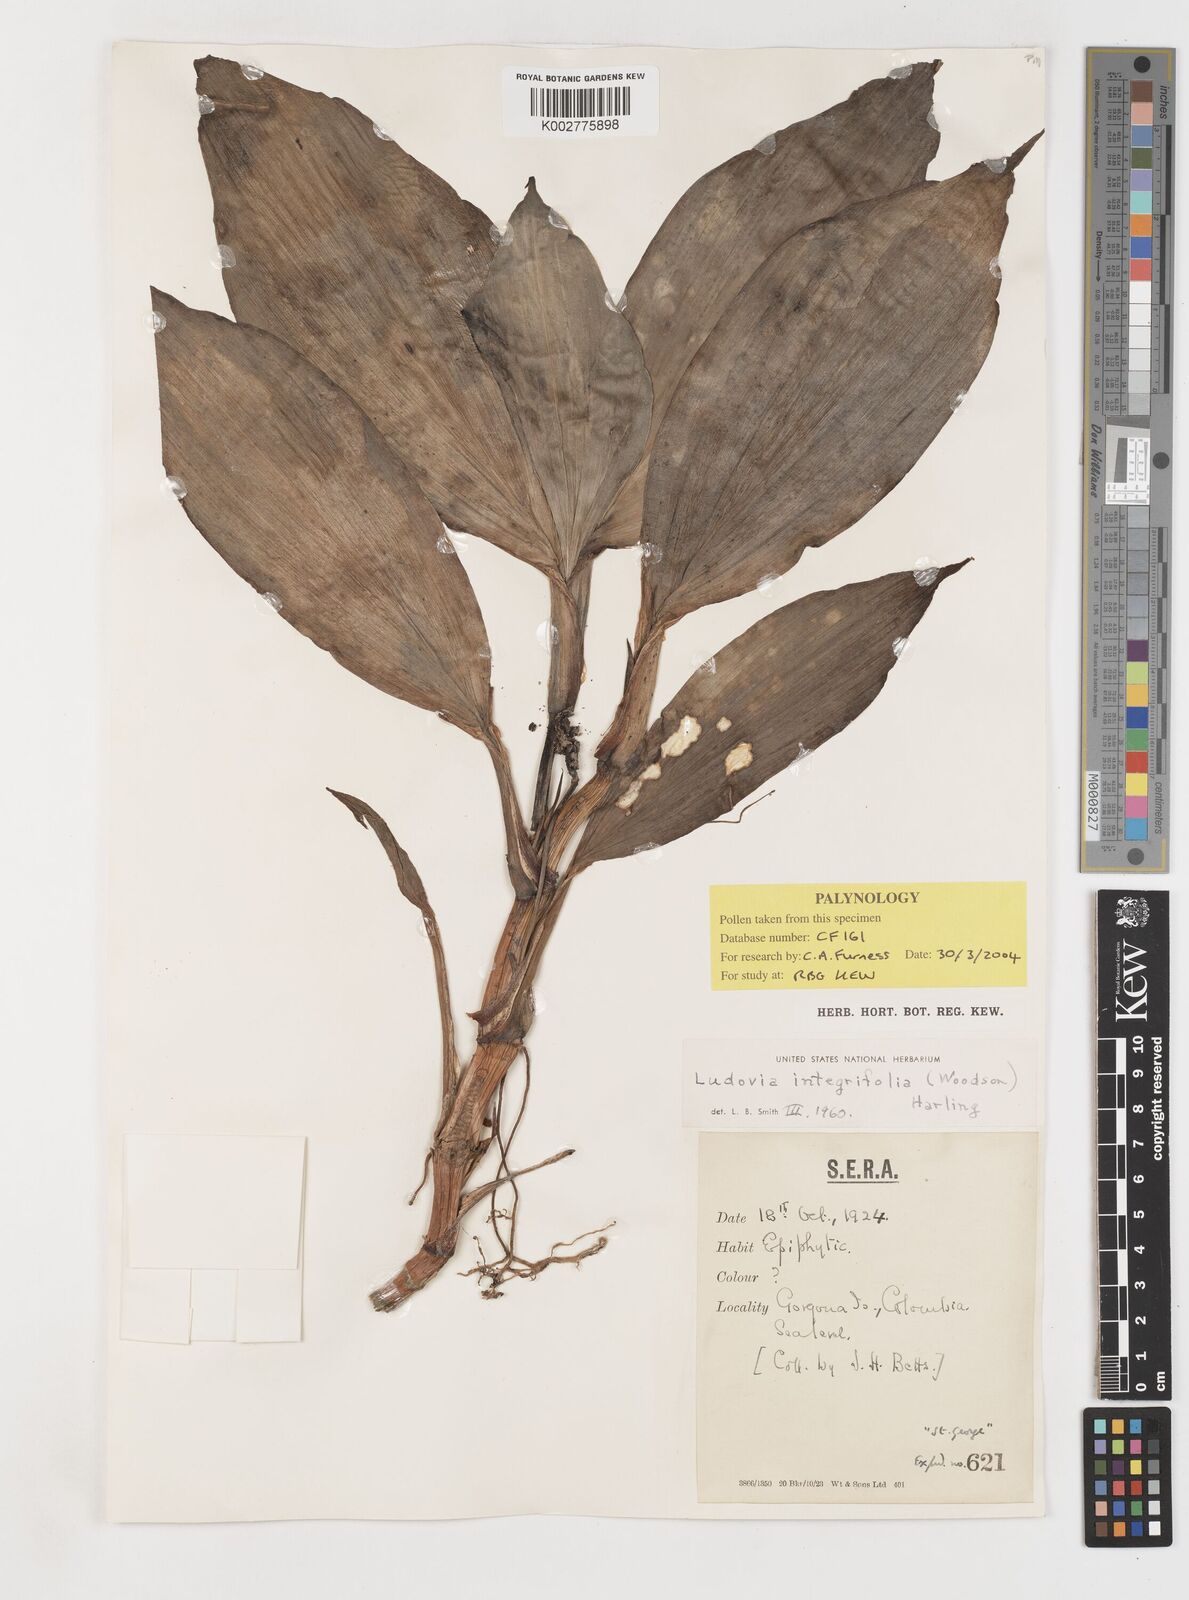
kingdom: Plantae
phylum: Tracheophyta
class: Liliopsida
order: Pandanales
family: Cyclanthaceae
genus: Ludovia
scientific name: Ludovia integrifolia
